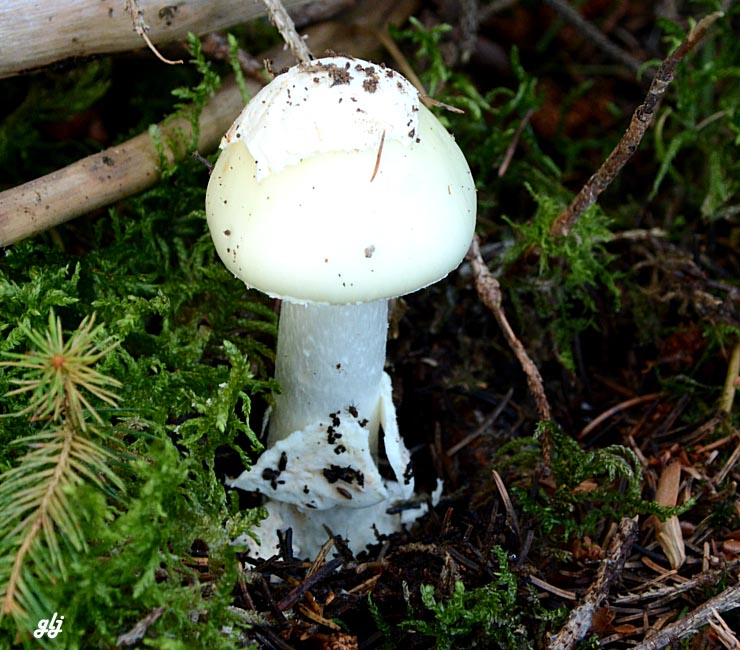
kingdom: Fungi
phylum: Basidiomycota
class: Agaricomycetes
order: Agaricales
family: Amanitaceae
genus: Amanita
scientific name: Amanita citrina
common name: kugleknoldet fluesvamp
